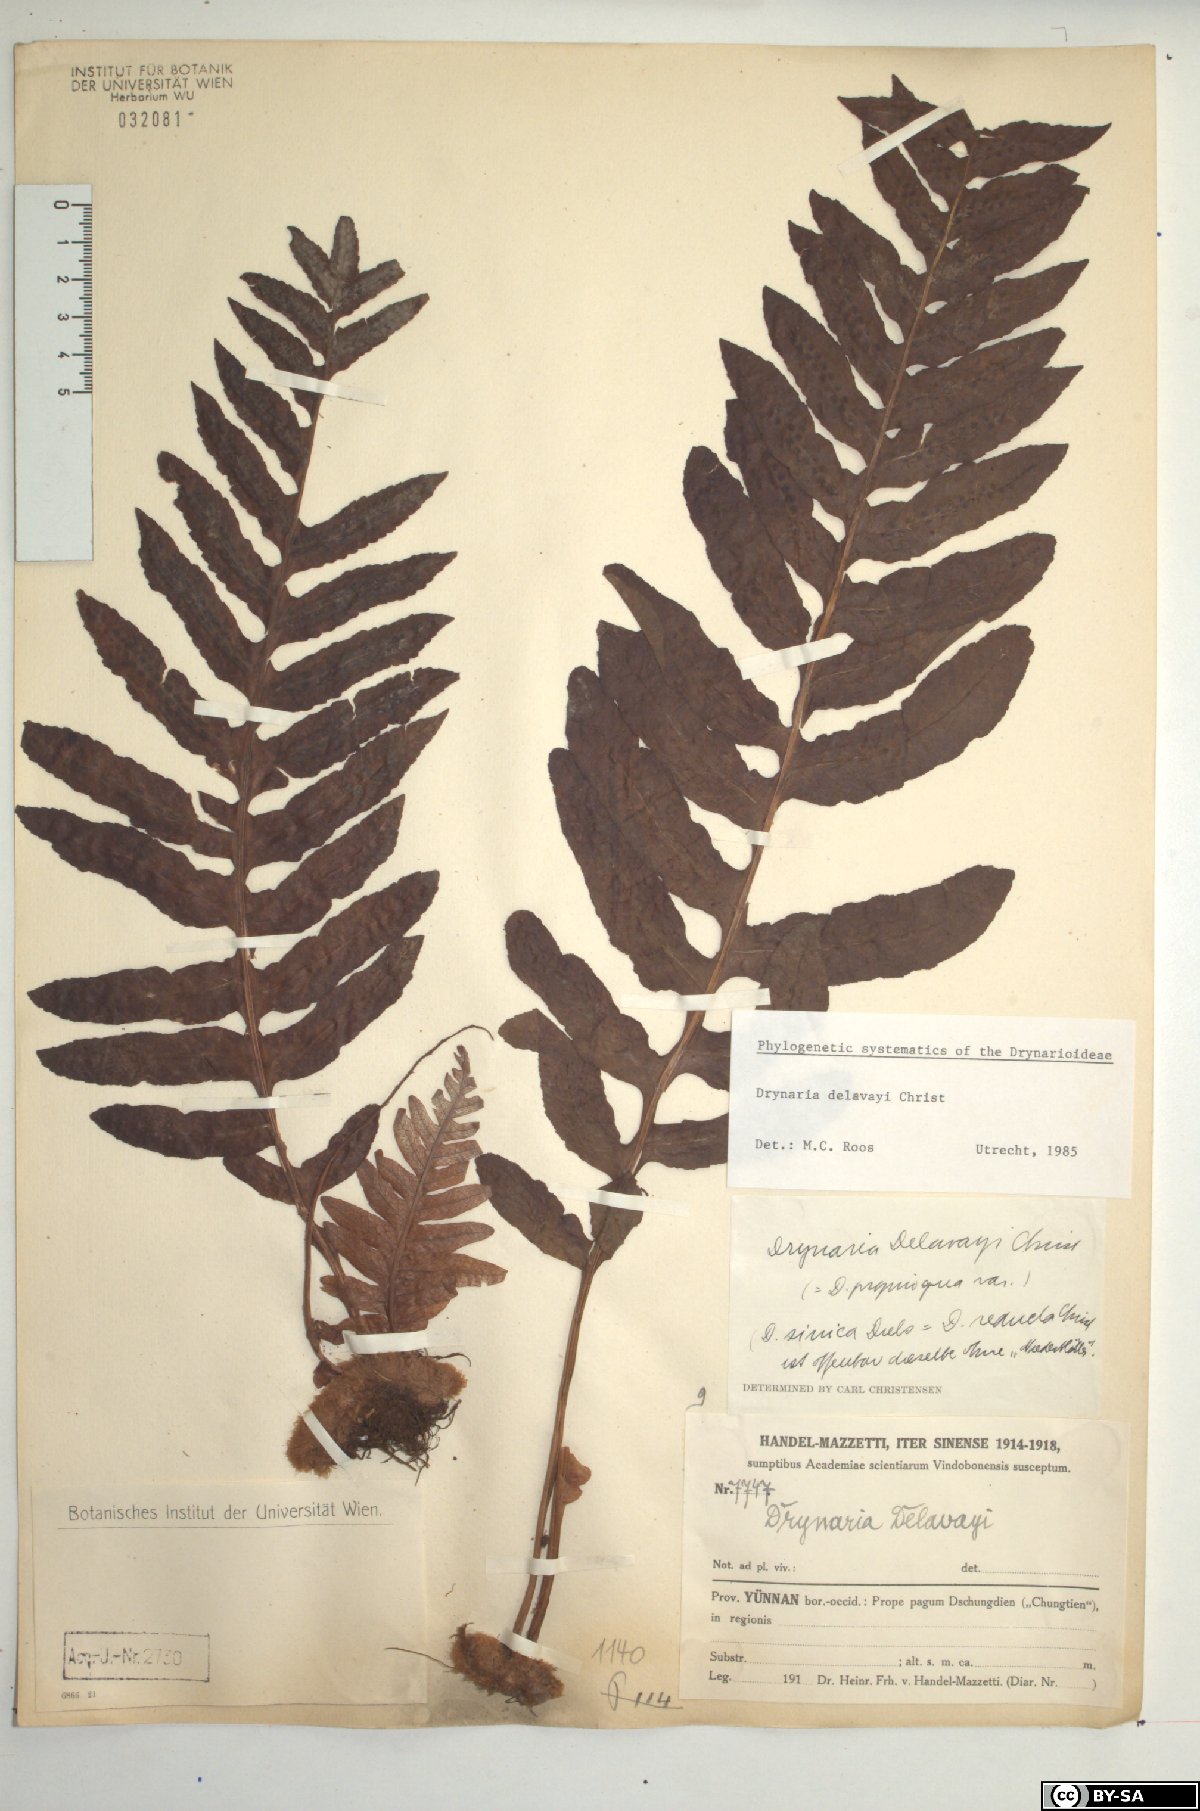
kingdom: Plantae
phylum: Tracheophyta
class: Polypodiopsida
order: Polypodiales
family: Polypodiaceae
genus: Drynaria
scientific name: Drynaria delavayi
